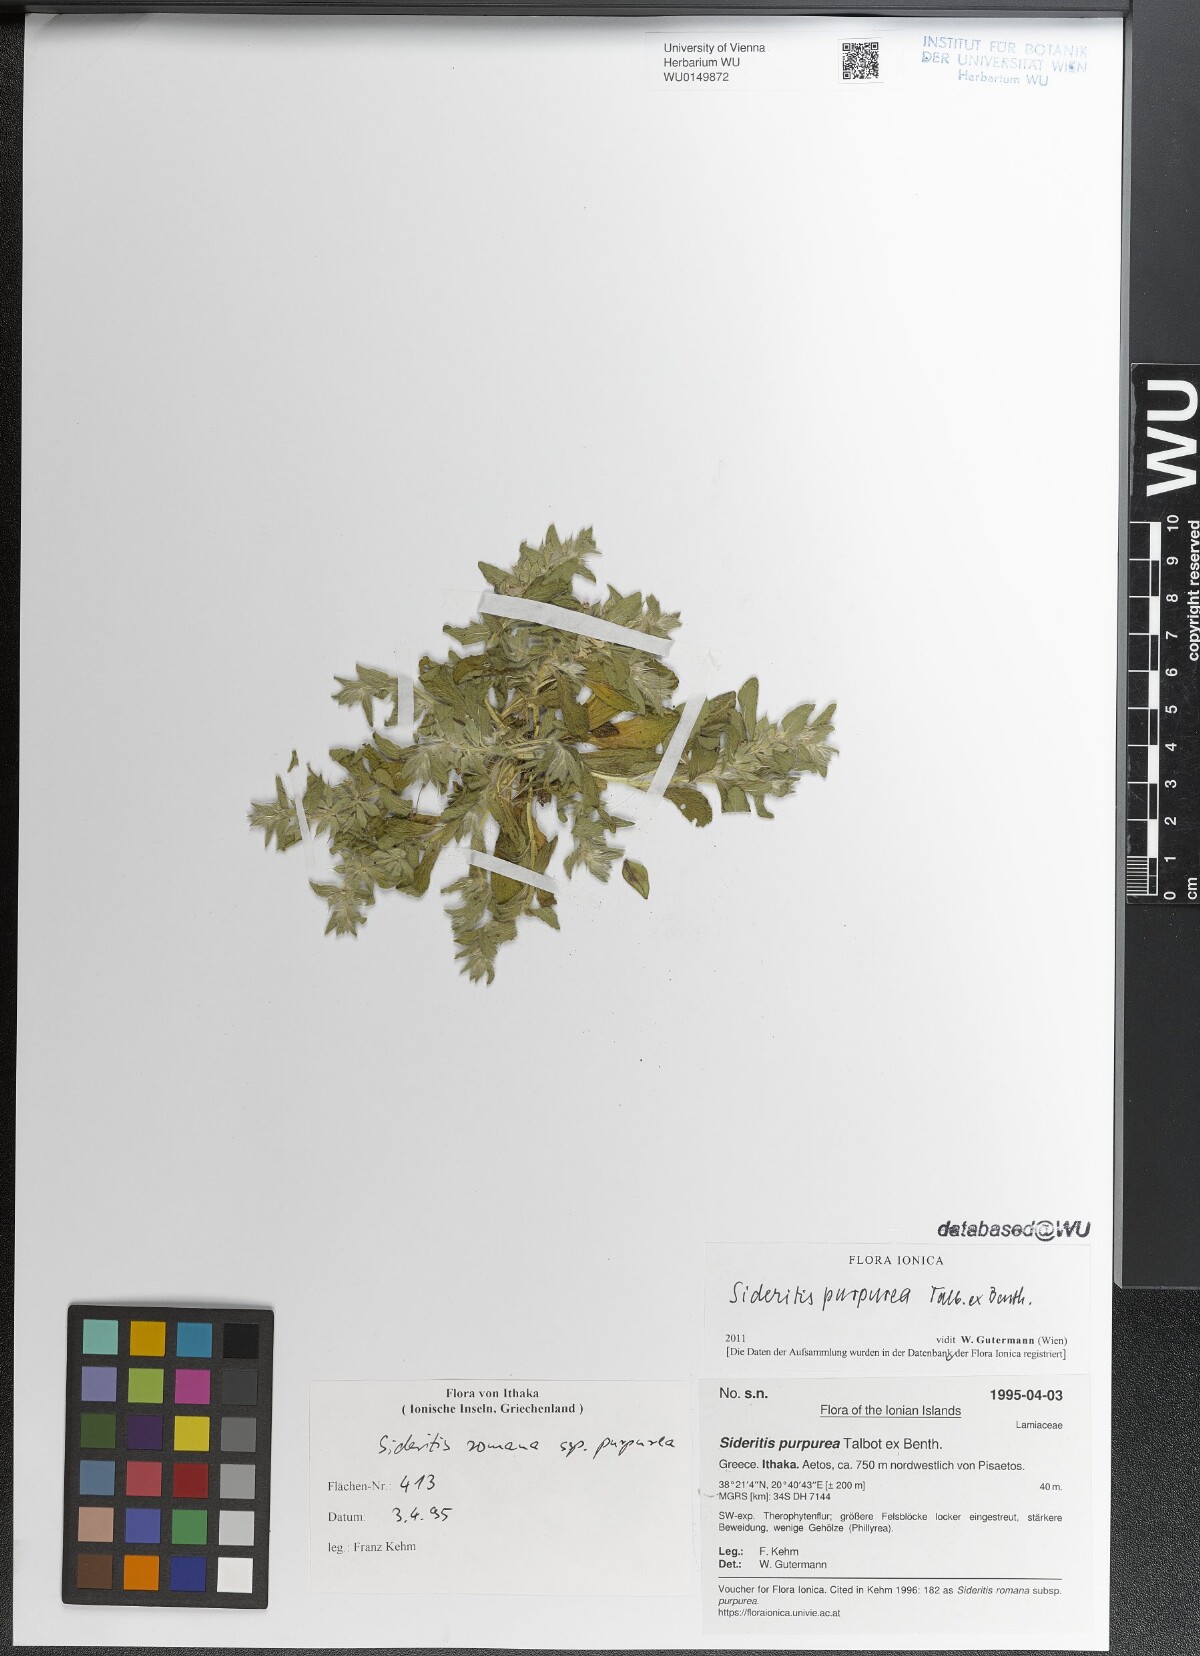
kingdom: Plantae
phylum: Tracheophyta
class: Magnoliopsida
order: Lamiales
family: Lamiaceae
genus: Sideritis
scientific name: Sideritis romana
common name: Simplebeak ironwort
